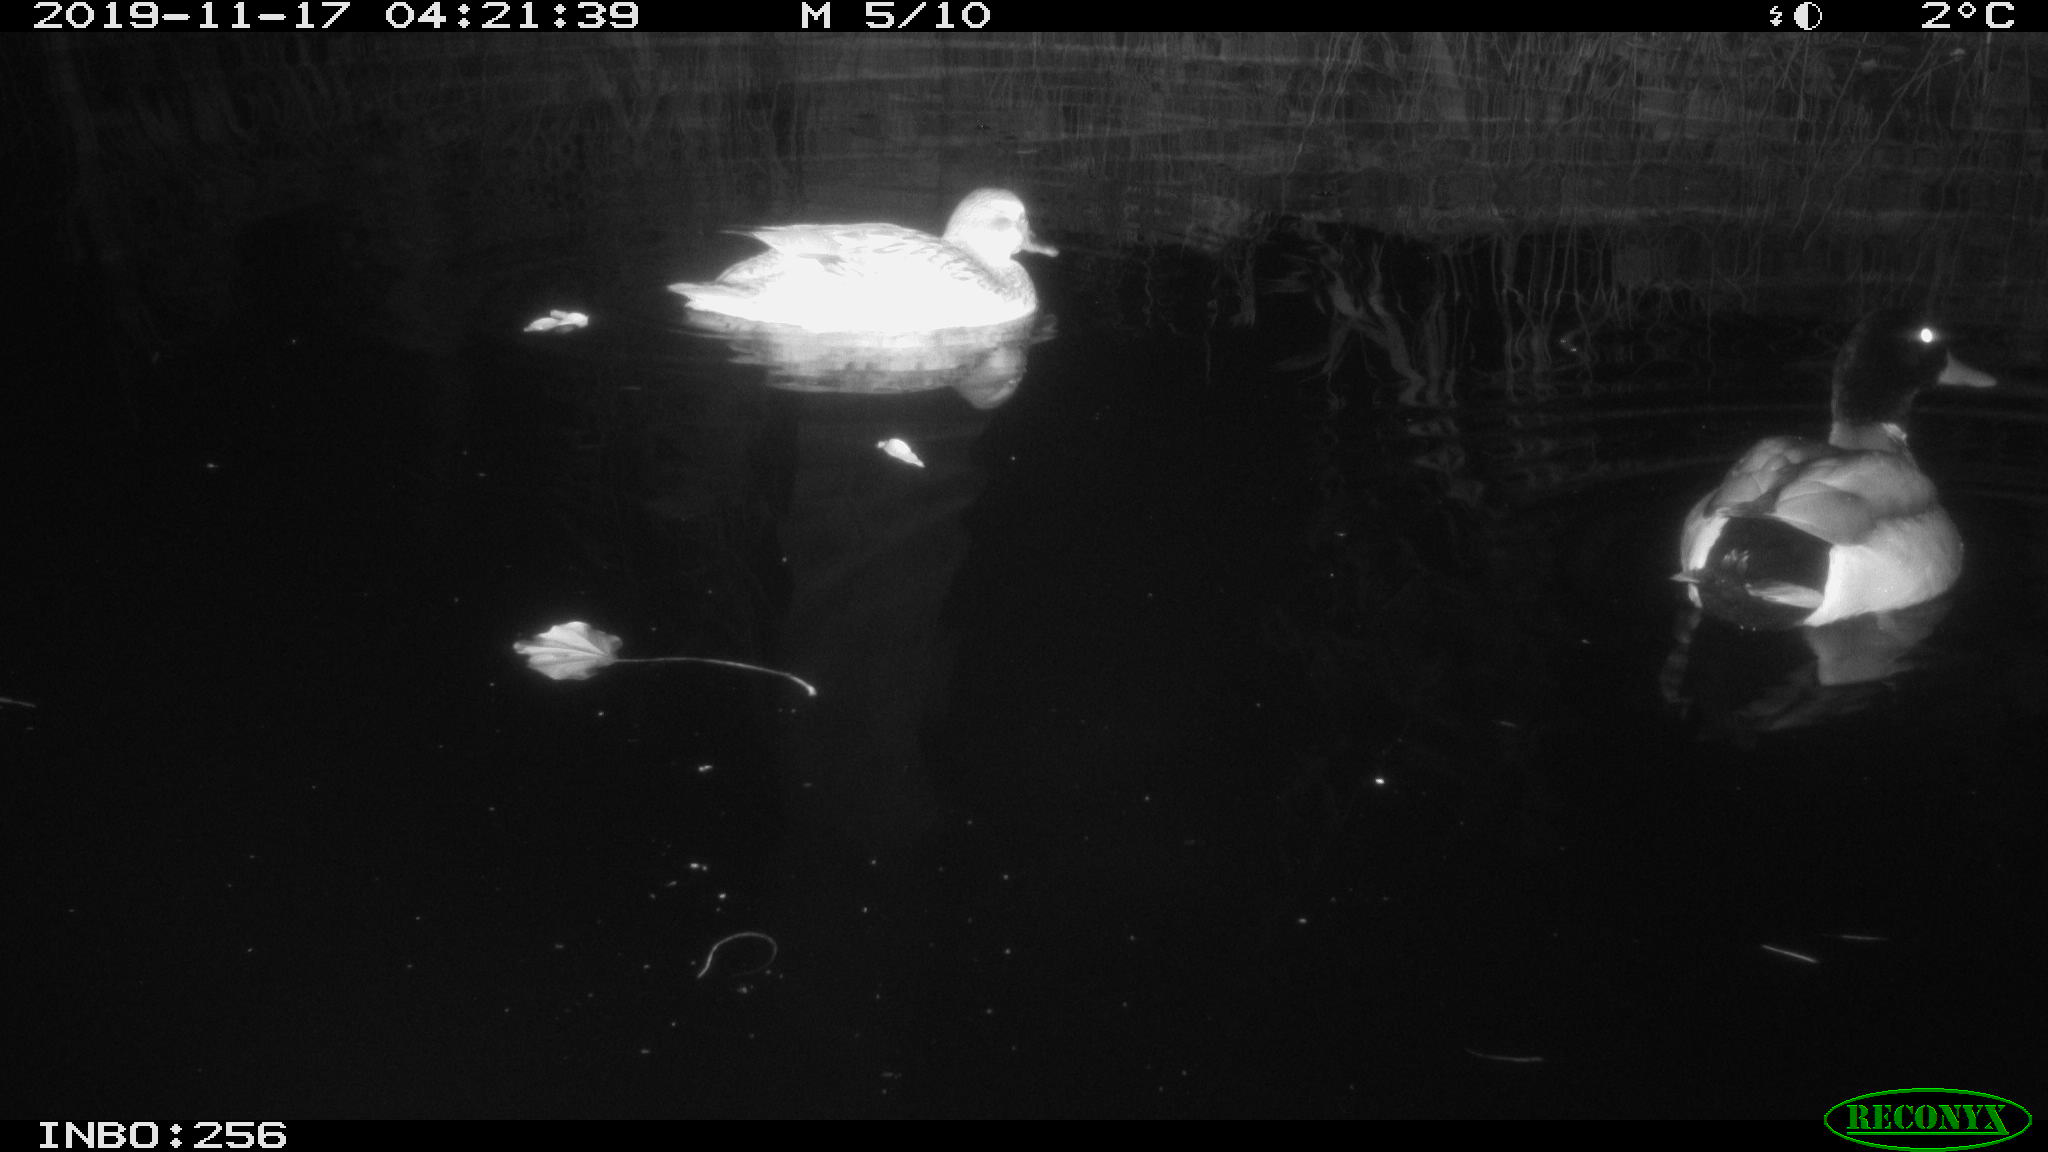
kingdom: Animalia
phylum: Chordata
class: Aves
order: Anseriformes
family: Anatidae
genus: Anas
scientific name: Anas platyrhynchos
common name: Mallard
